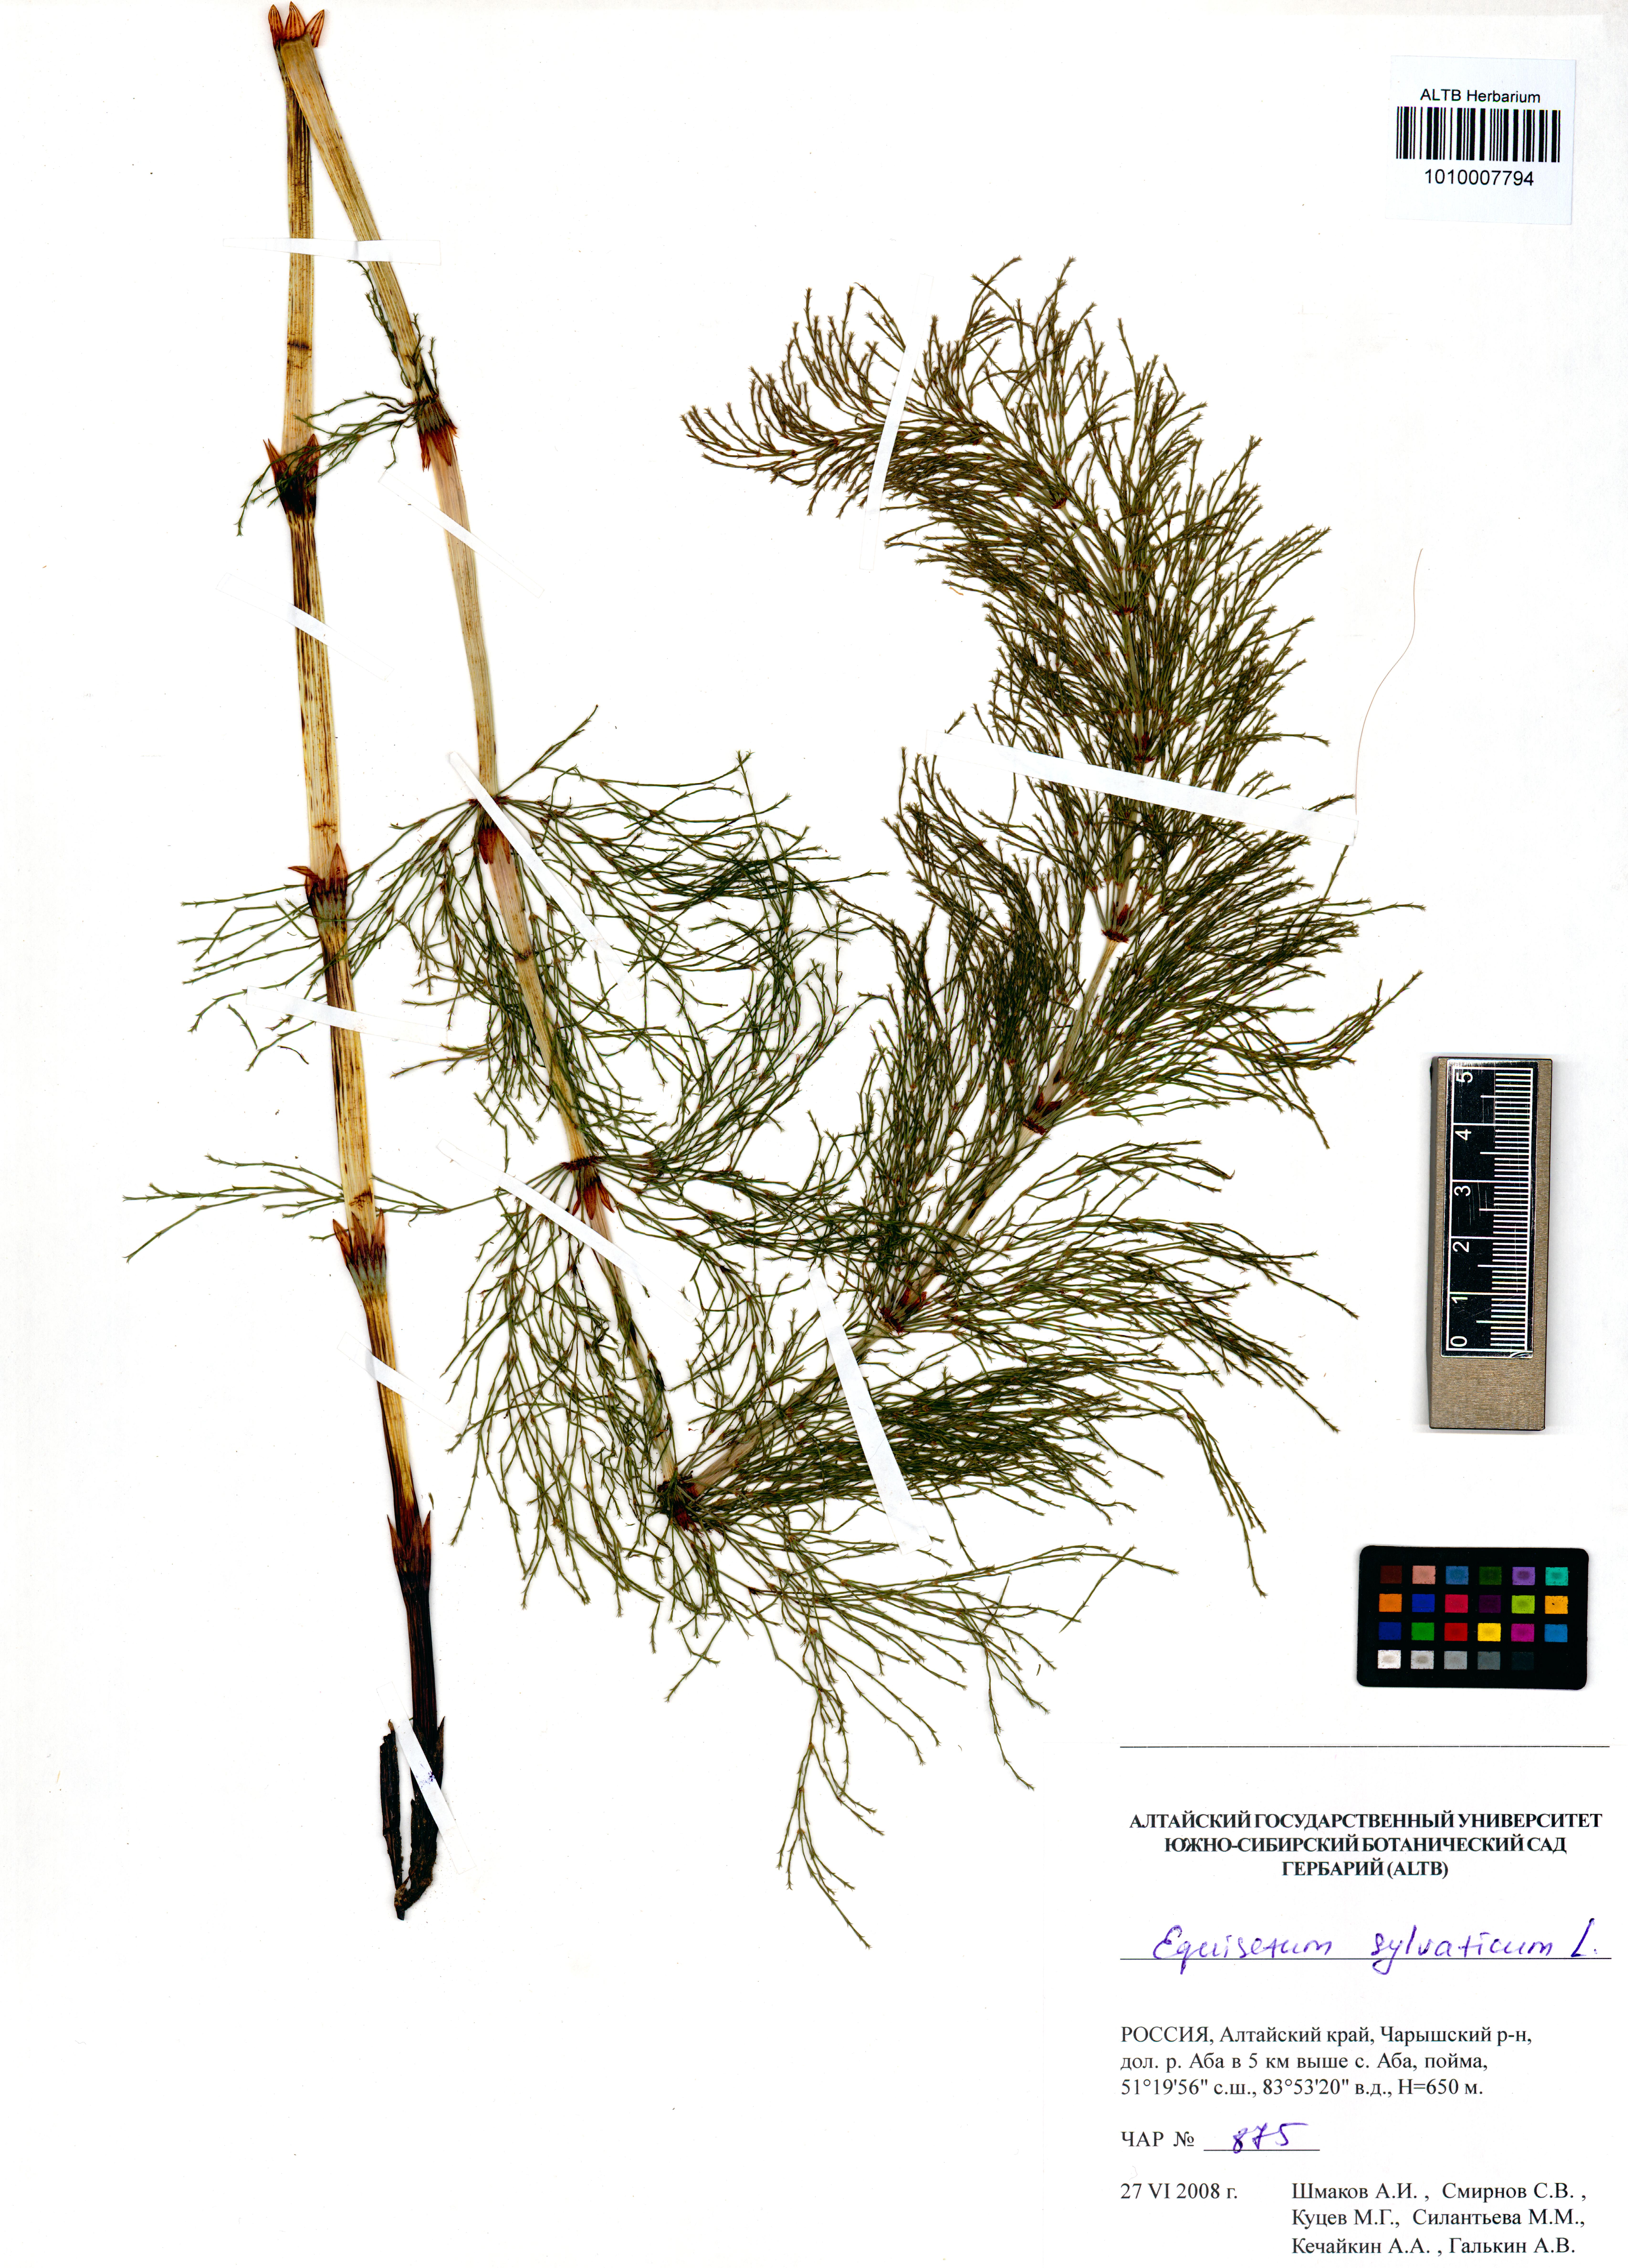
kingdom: Plantae
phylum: Tracheophyta
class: Polypodiopsida
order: Equisetales
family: Equisetaceae
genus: Equisetum
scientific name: Equisetum sylvaticum
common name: Wood horsetail
